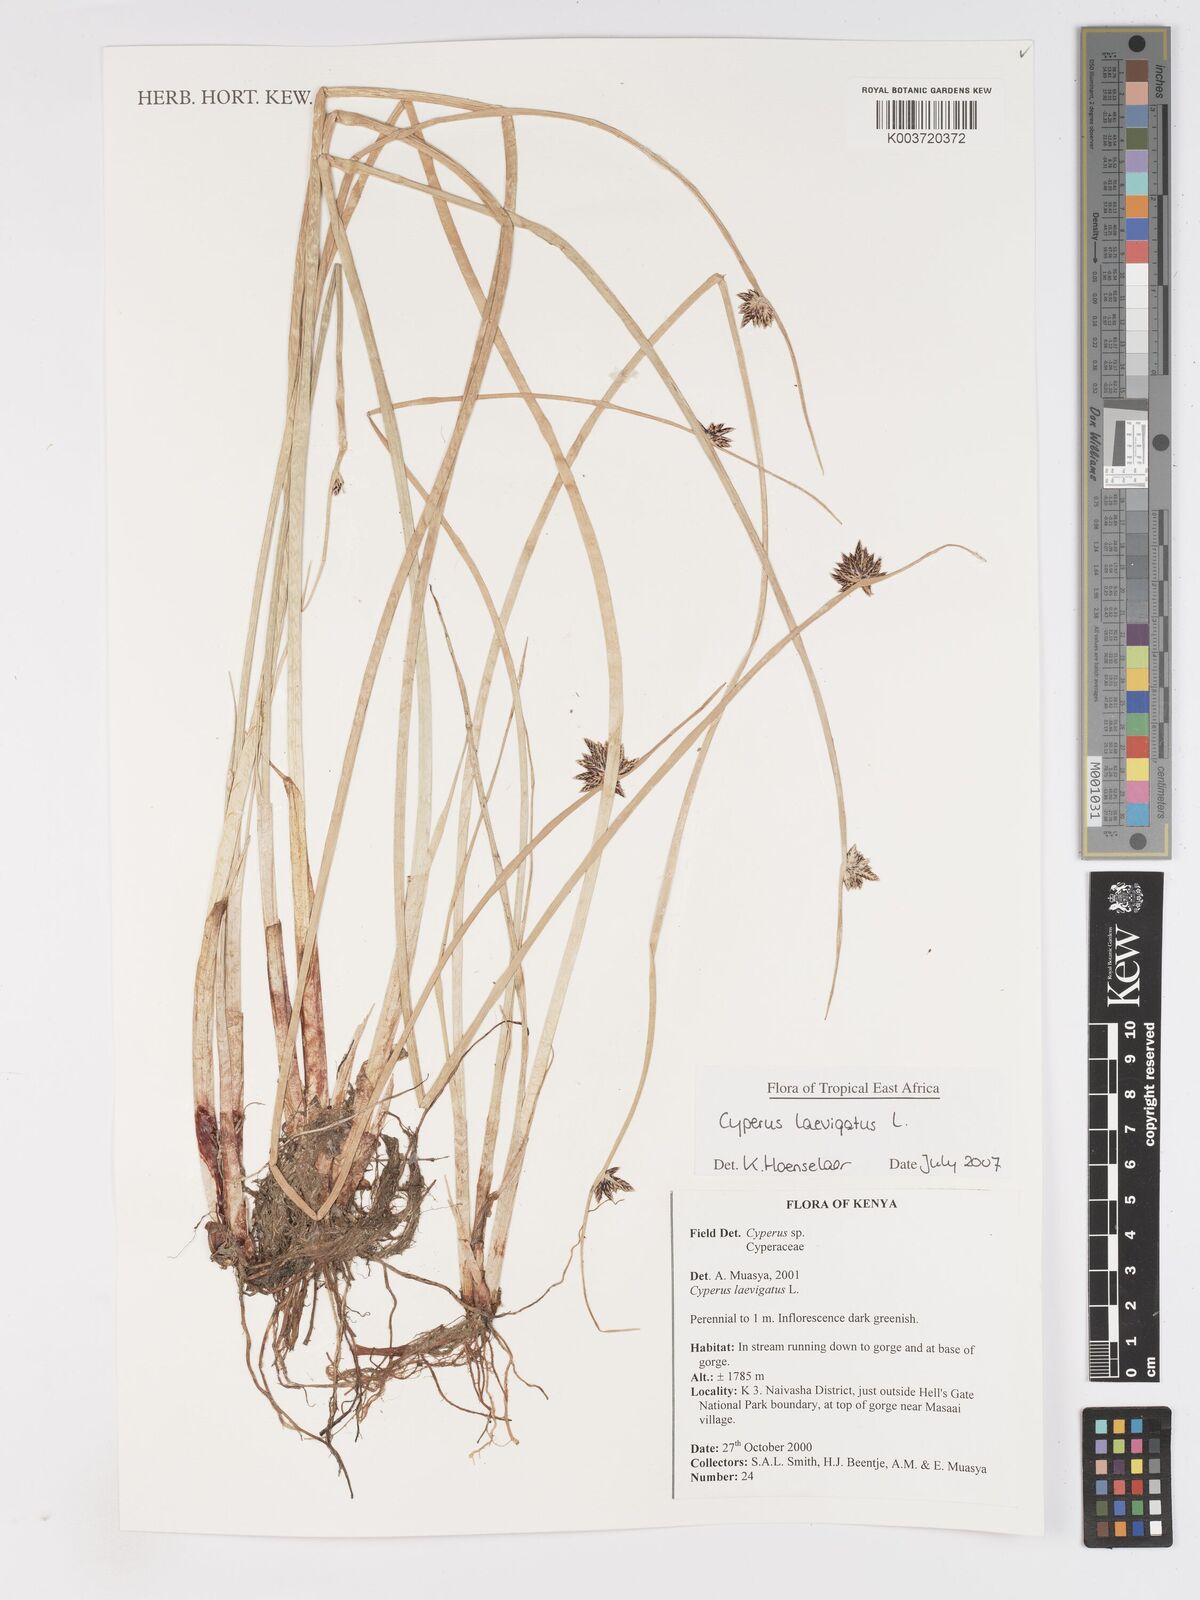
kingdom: Plantae
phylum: Tracheophyta
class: Liliopsida
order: Poales
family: Cyperaceae
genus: Cyperus
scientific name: Cyperus laevigatus
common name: Smooth flat sedge
